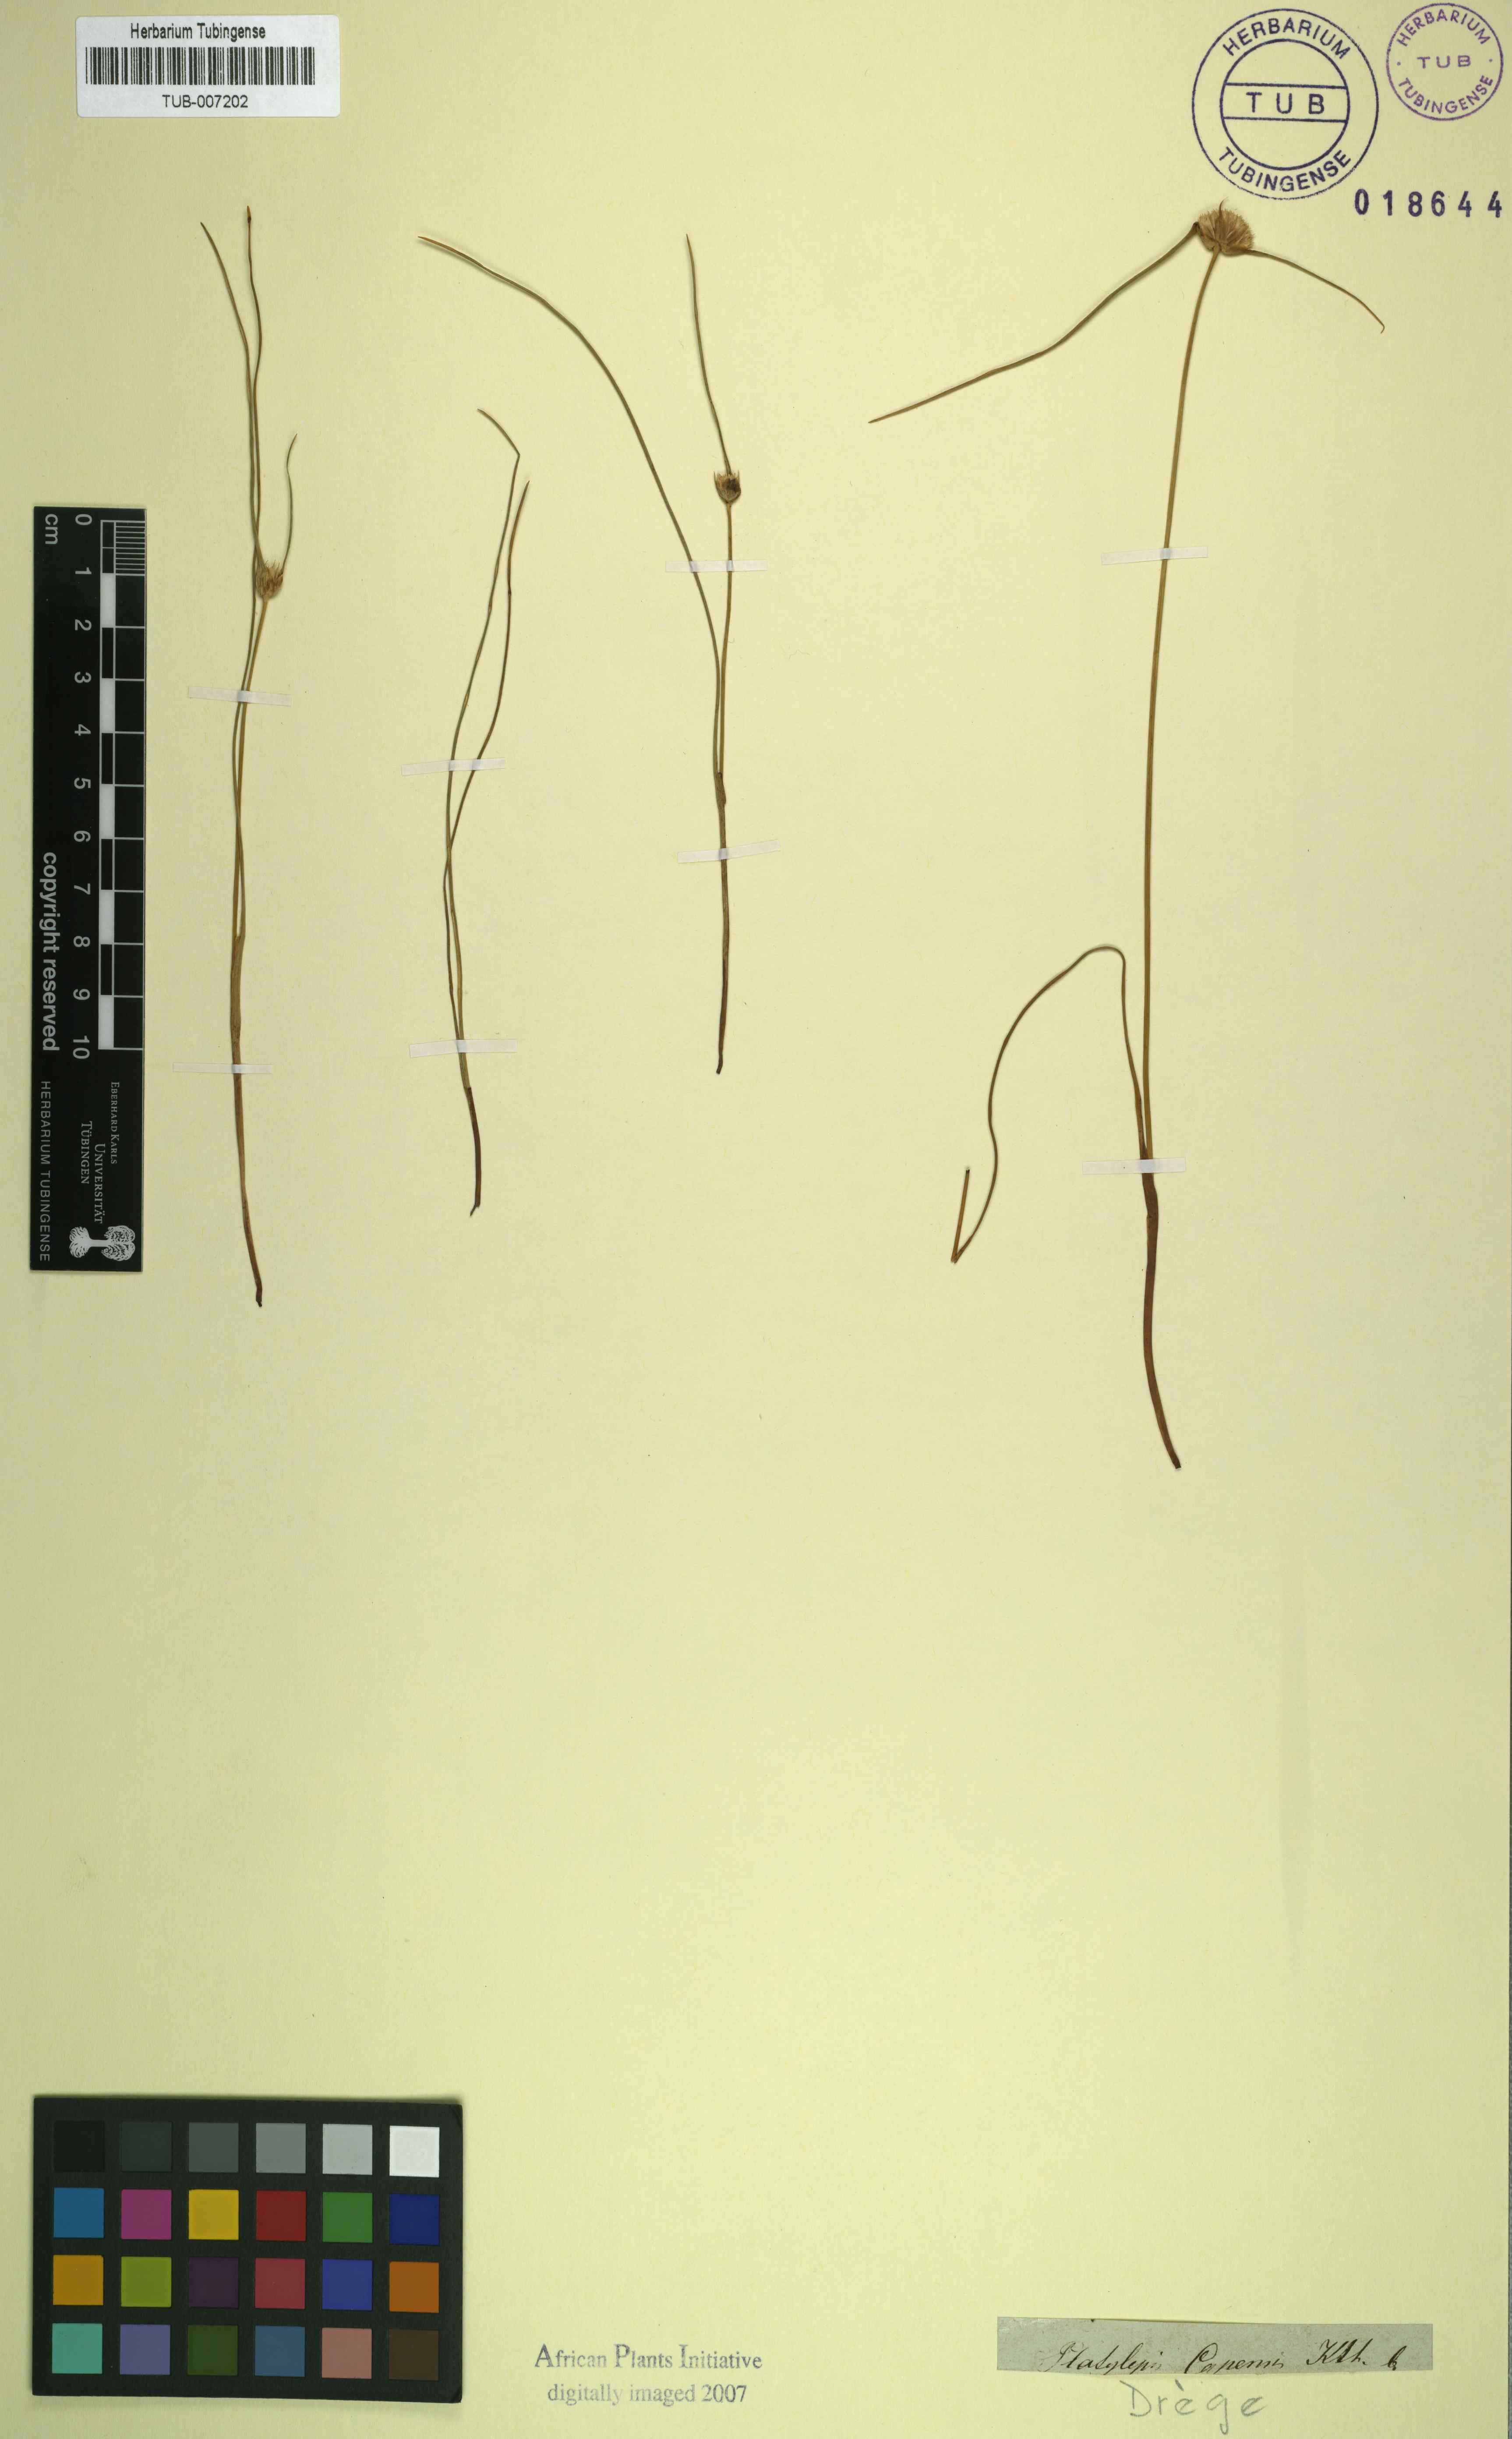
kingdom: Plantae
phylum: Tracheophyta
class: Liliopsida
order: Poales
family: Cyperaceae
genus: Cyperus
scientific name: Cyperus ascocapensis
